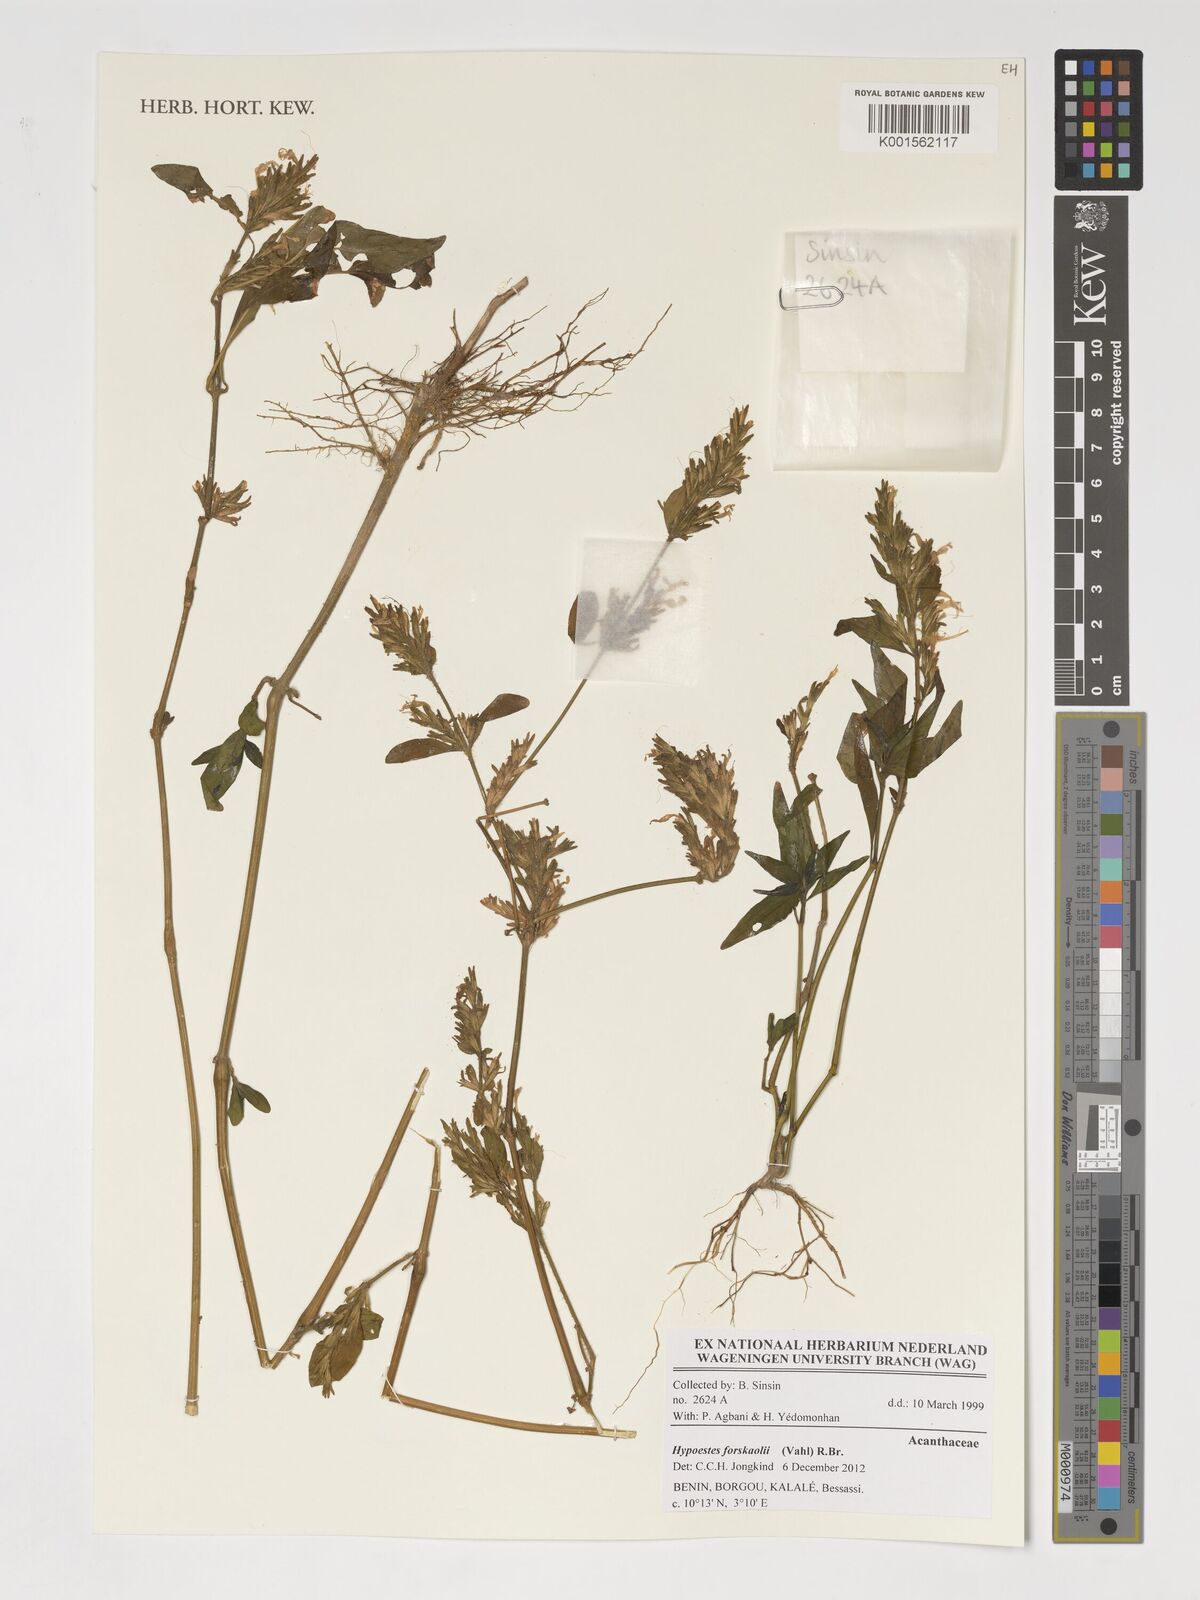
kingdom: Plantae
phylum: Tracheophyta
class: Magnoliopsida
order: Lamiales
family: Acanthaceae
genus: Hypoestes
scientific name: Hypoestes forskaolii
